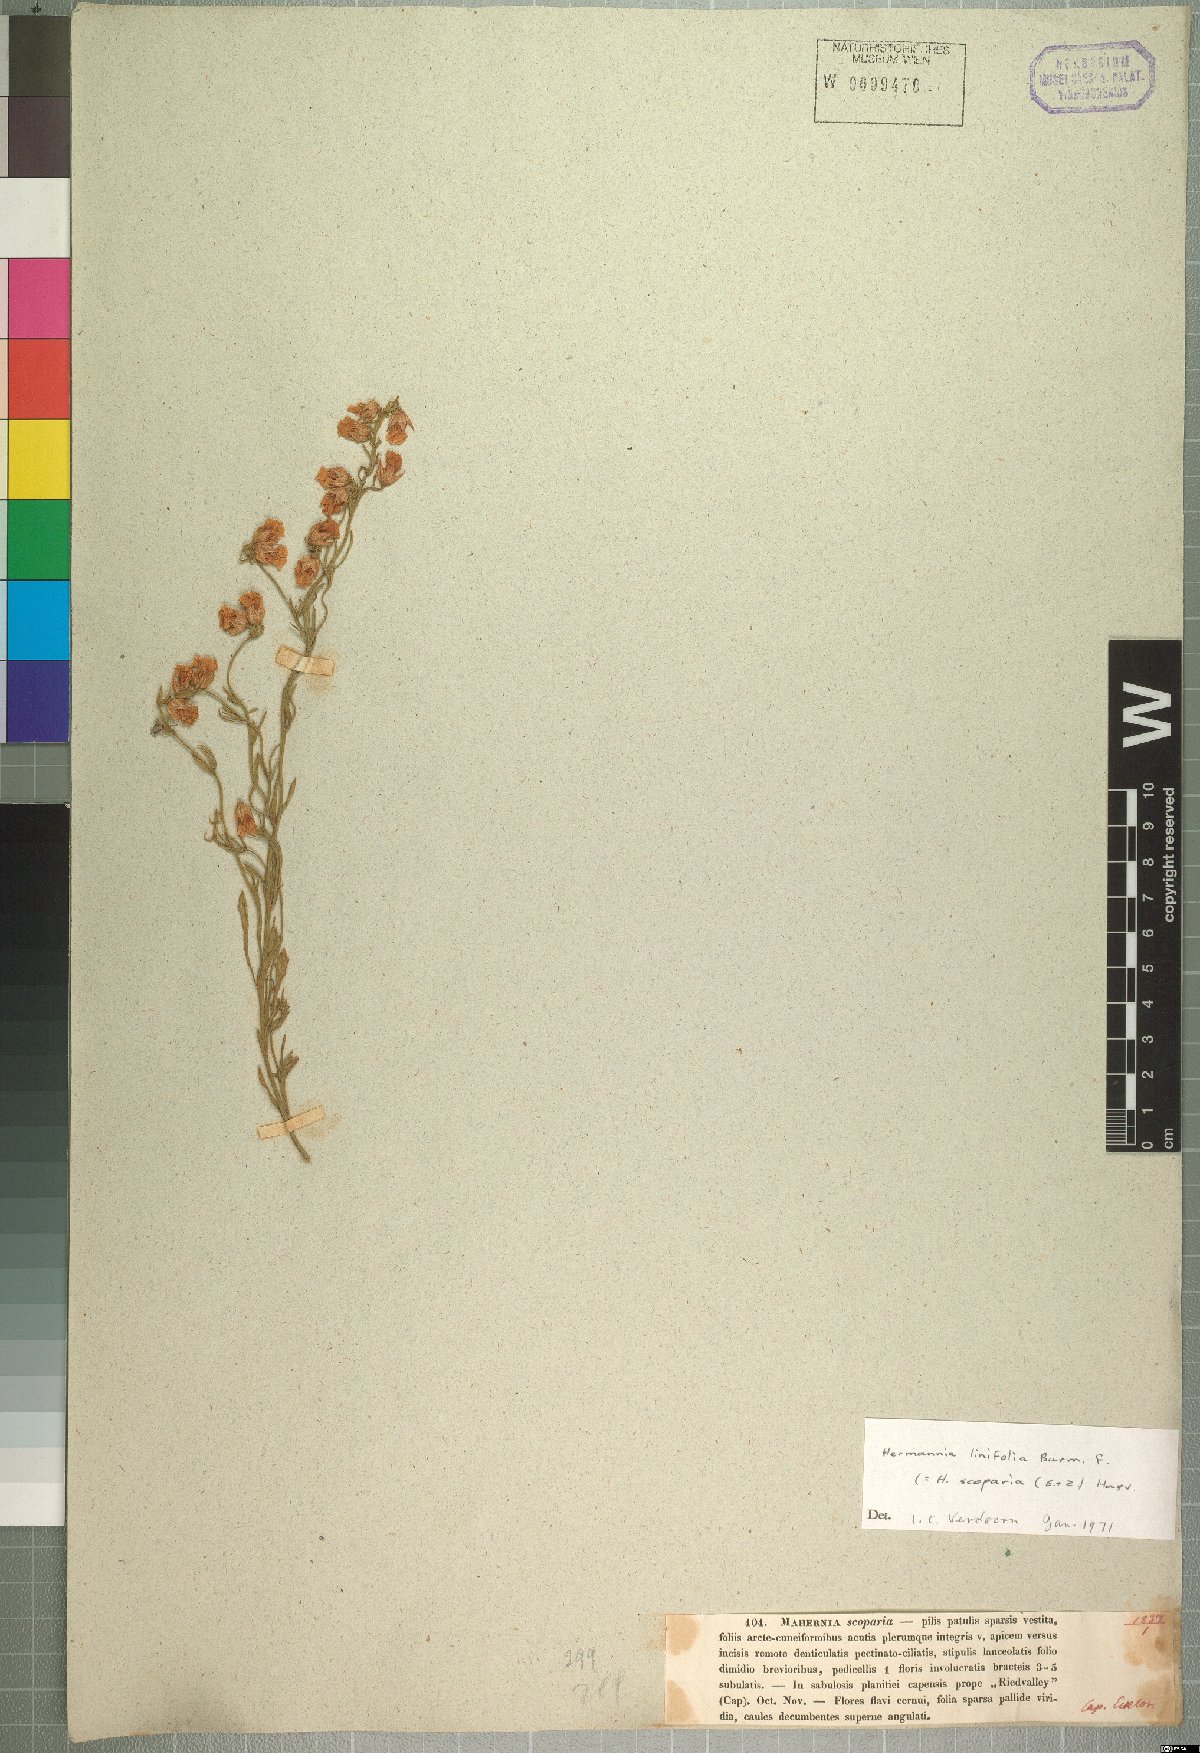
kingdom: Plantae
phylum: Tracheophyta
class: Magnoliopsida
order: Malvales
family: Malvaceae
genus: Hermannia
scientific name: Hermannia linifolia
